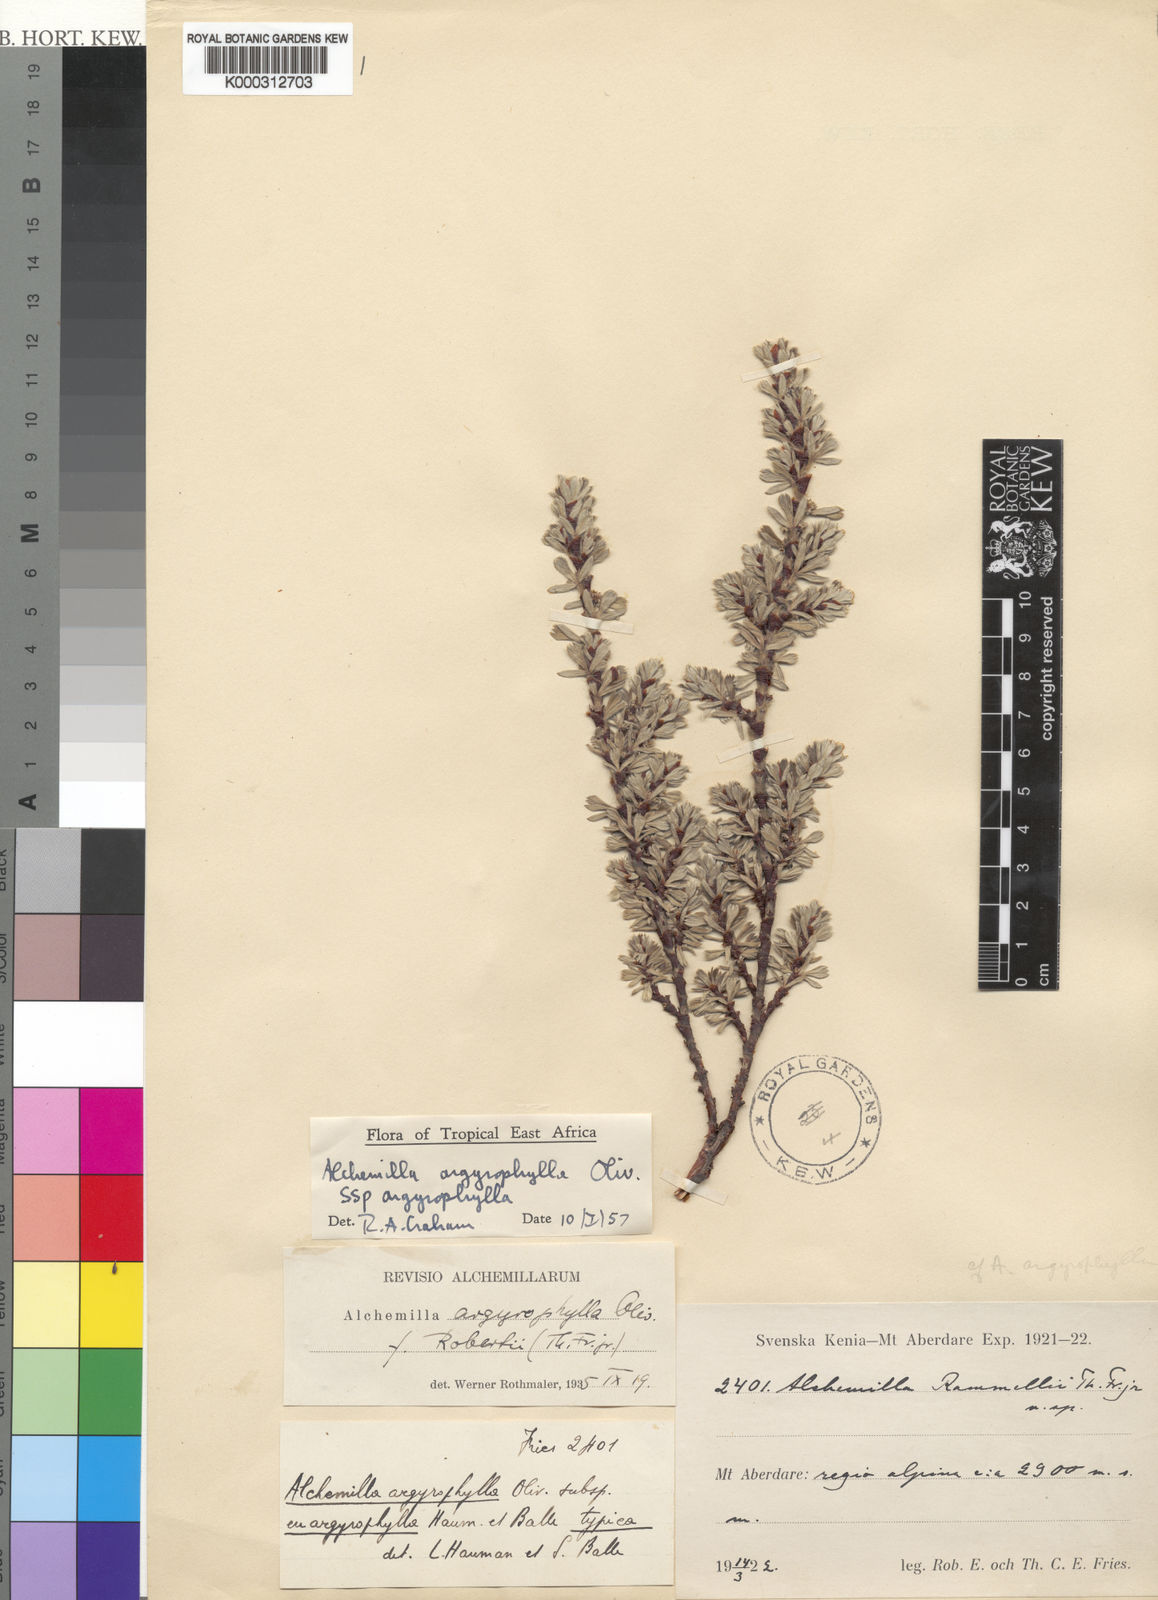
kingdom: Plantae
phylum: Tracheophyta
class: Magnoliopsida
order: Rosales
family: Rosaceae
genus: Alchemilla
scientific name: Alchemilla argyrophylla
